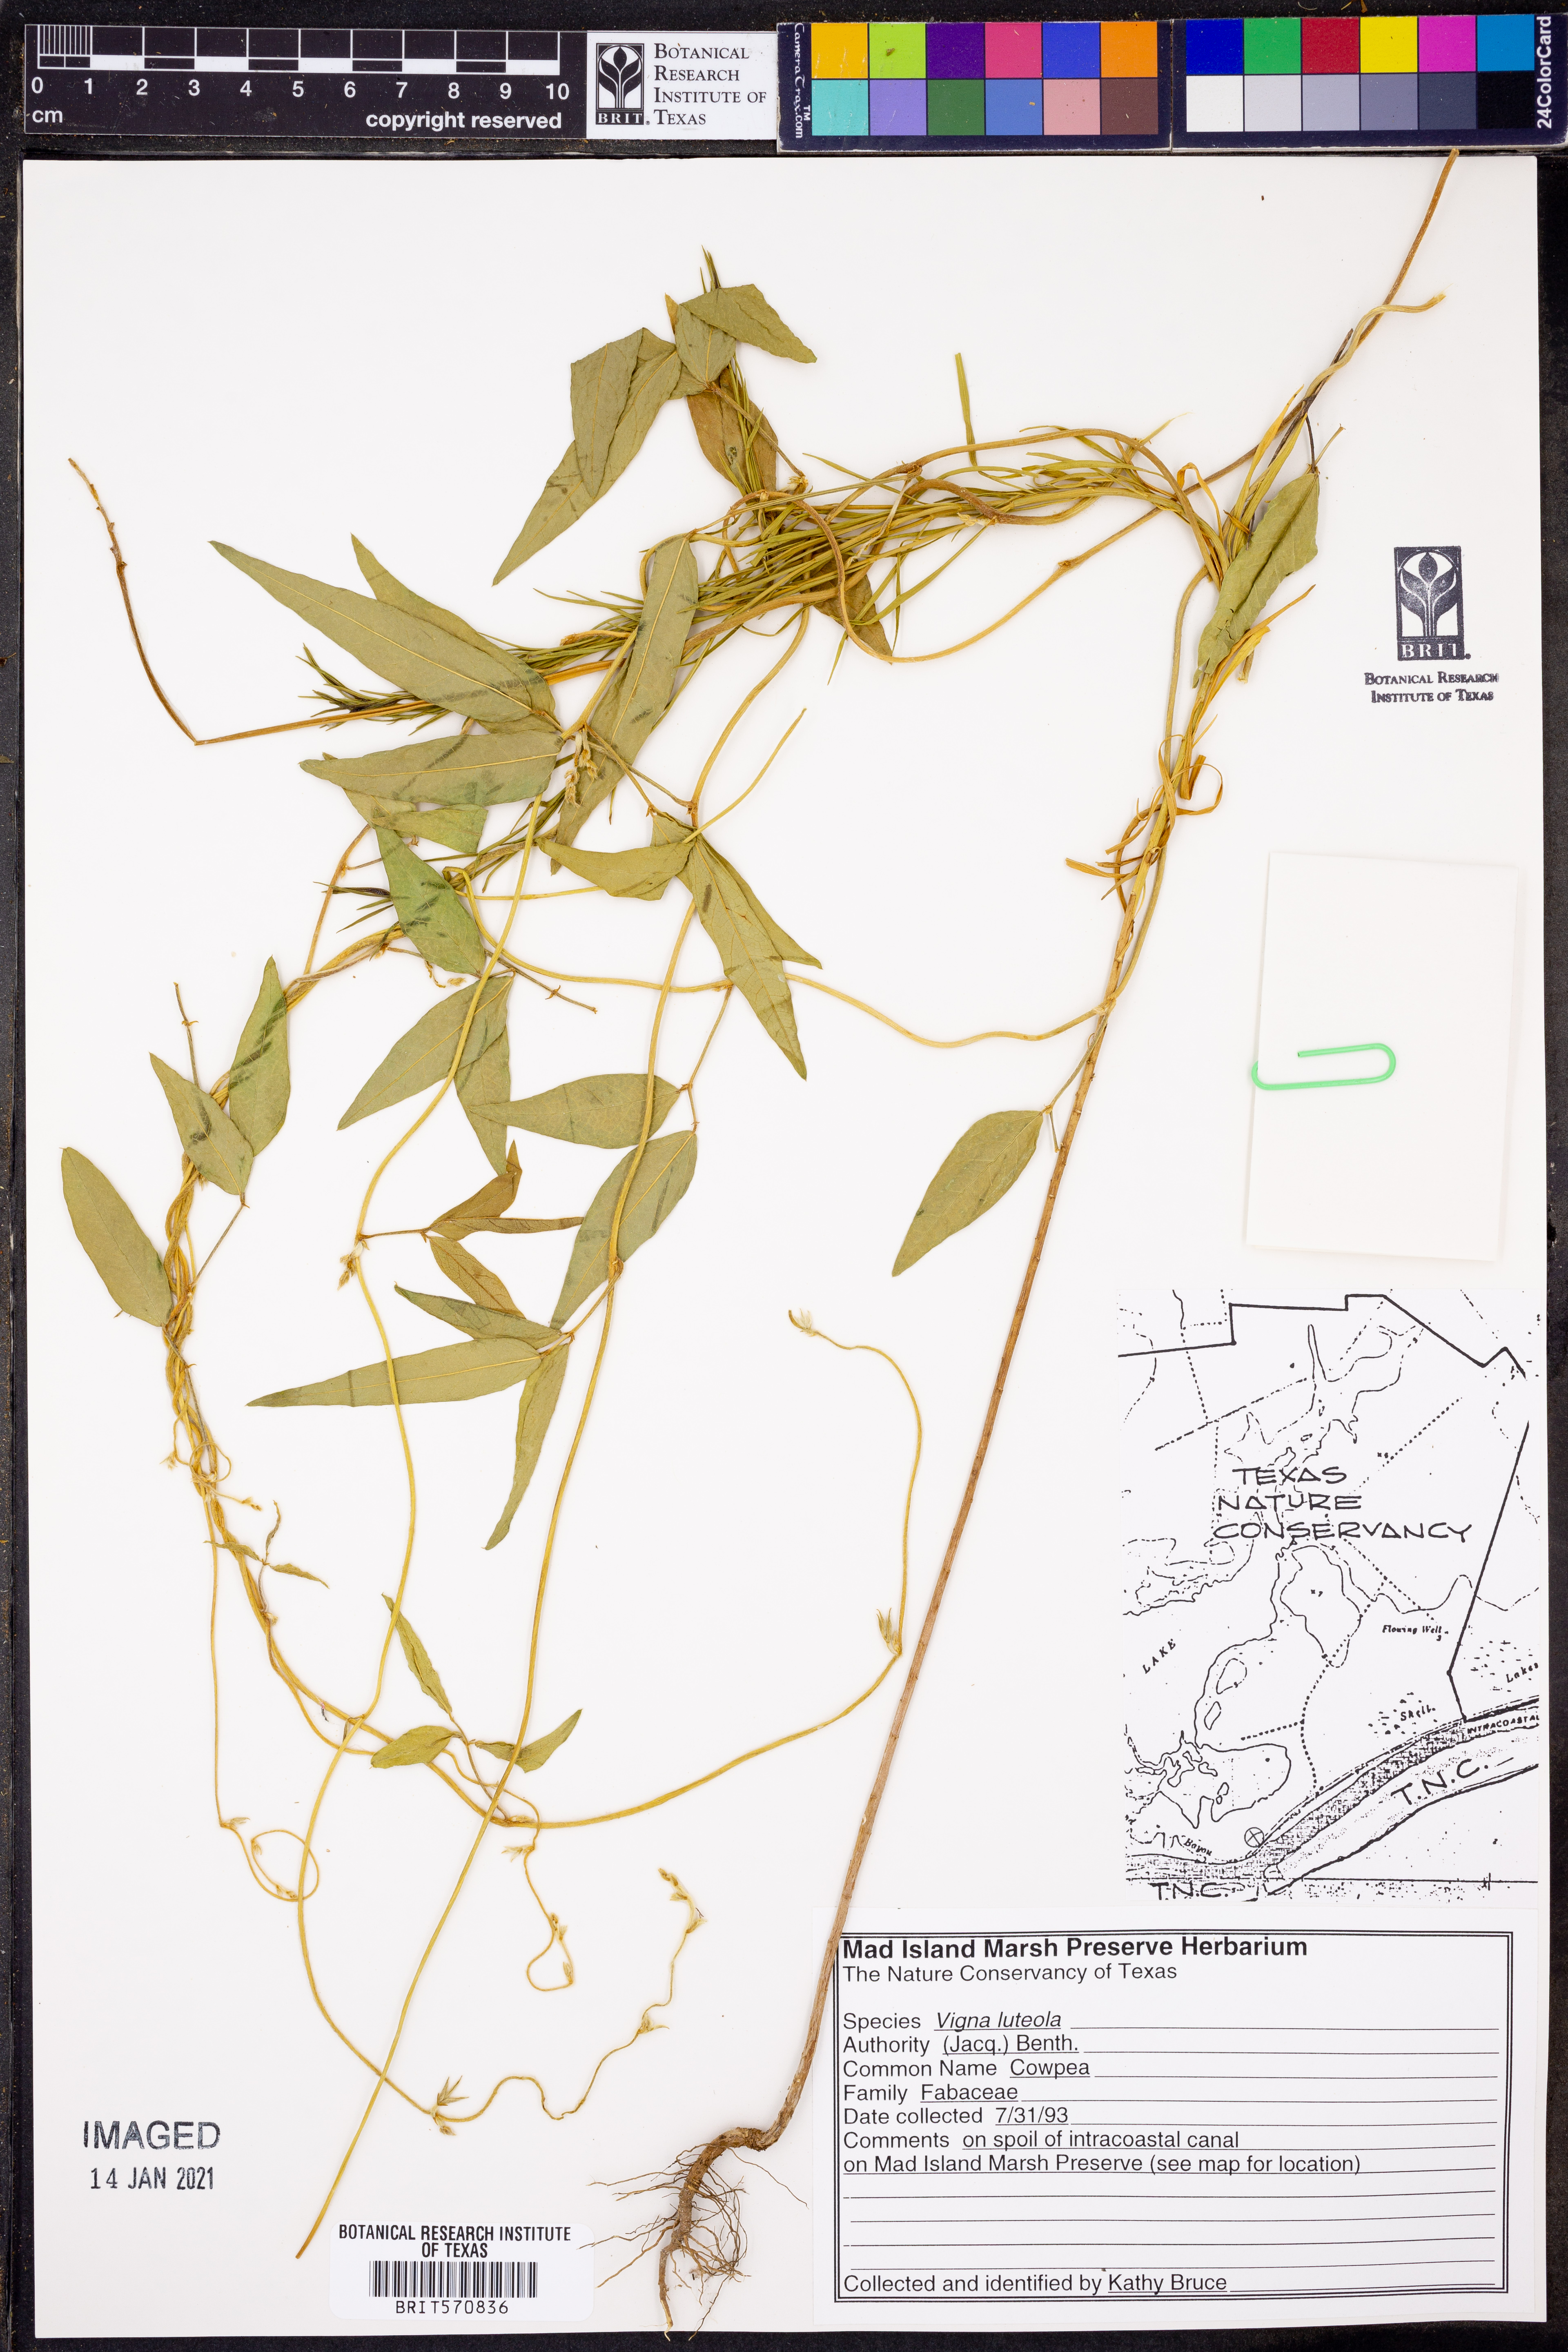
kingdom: Plantae
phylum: Tracheophyta
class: Magnoliopsida
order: Fabales
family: Fabaceae
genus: Vigna
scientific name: Vigna luteola
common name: Hairypod cowpea
